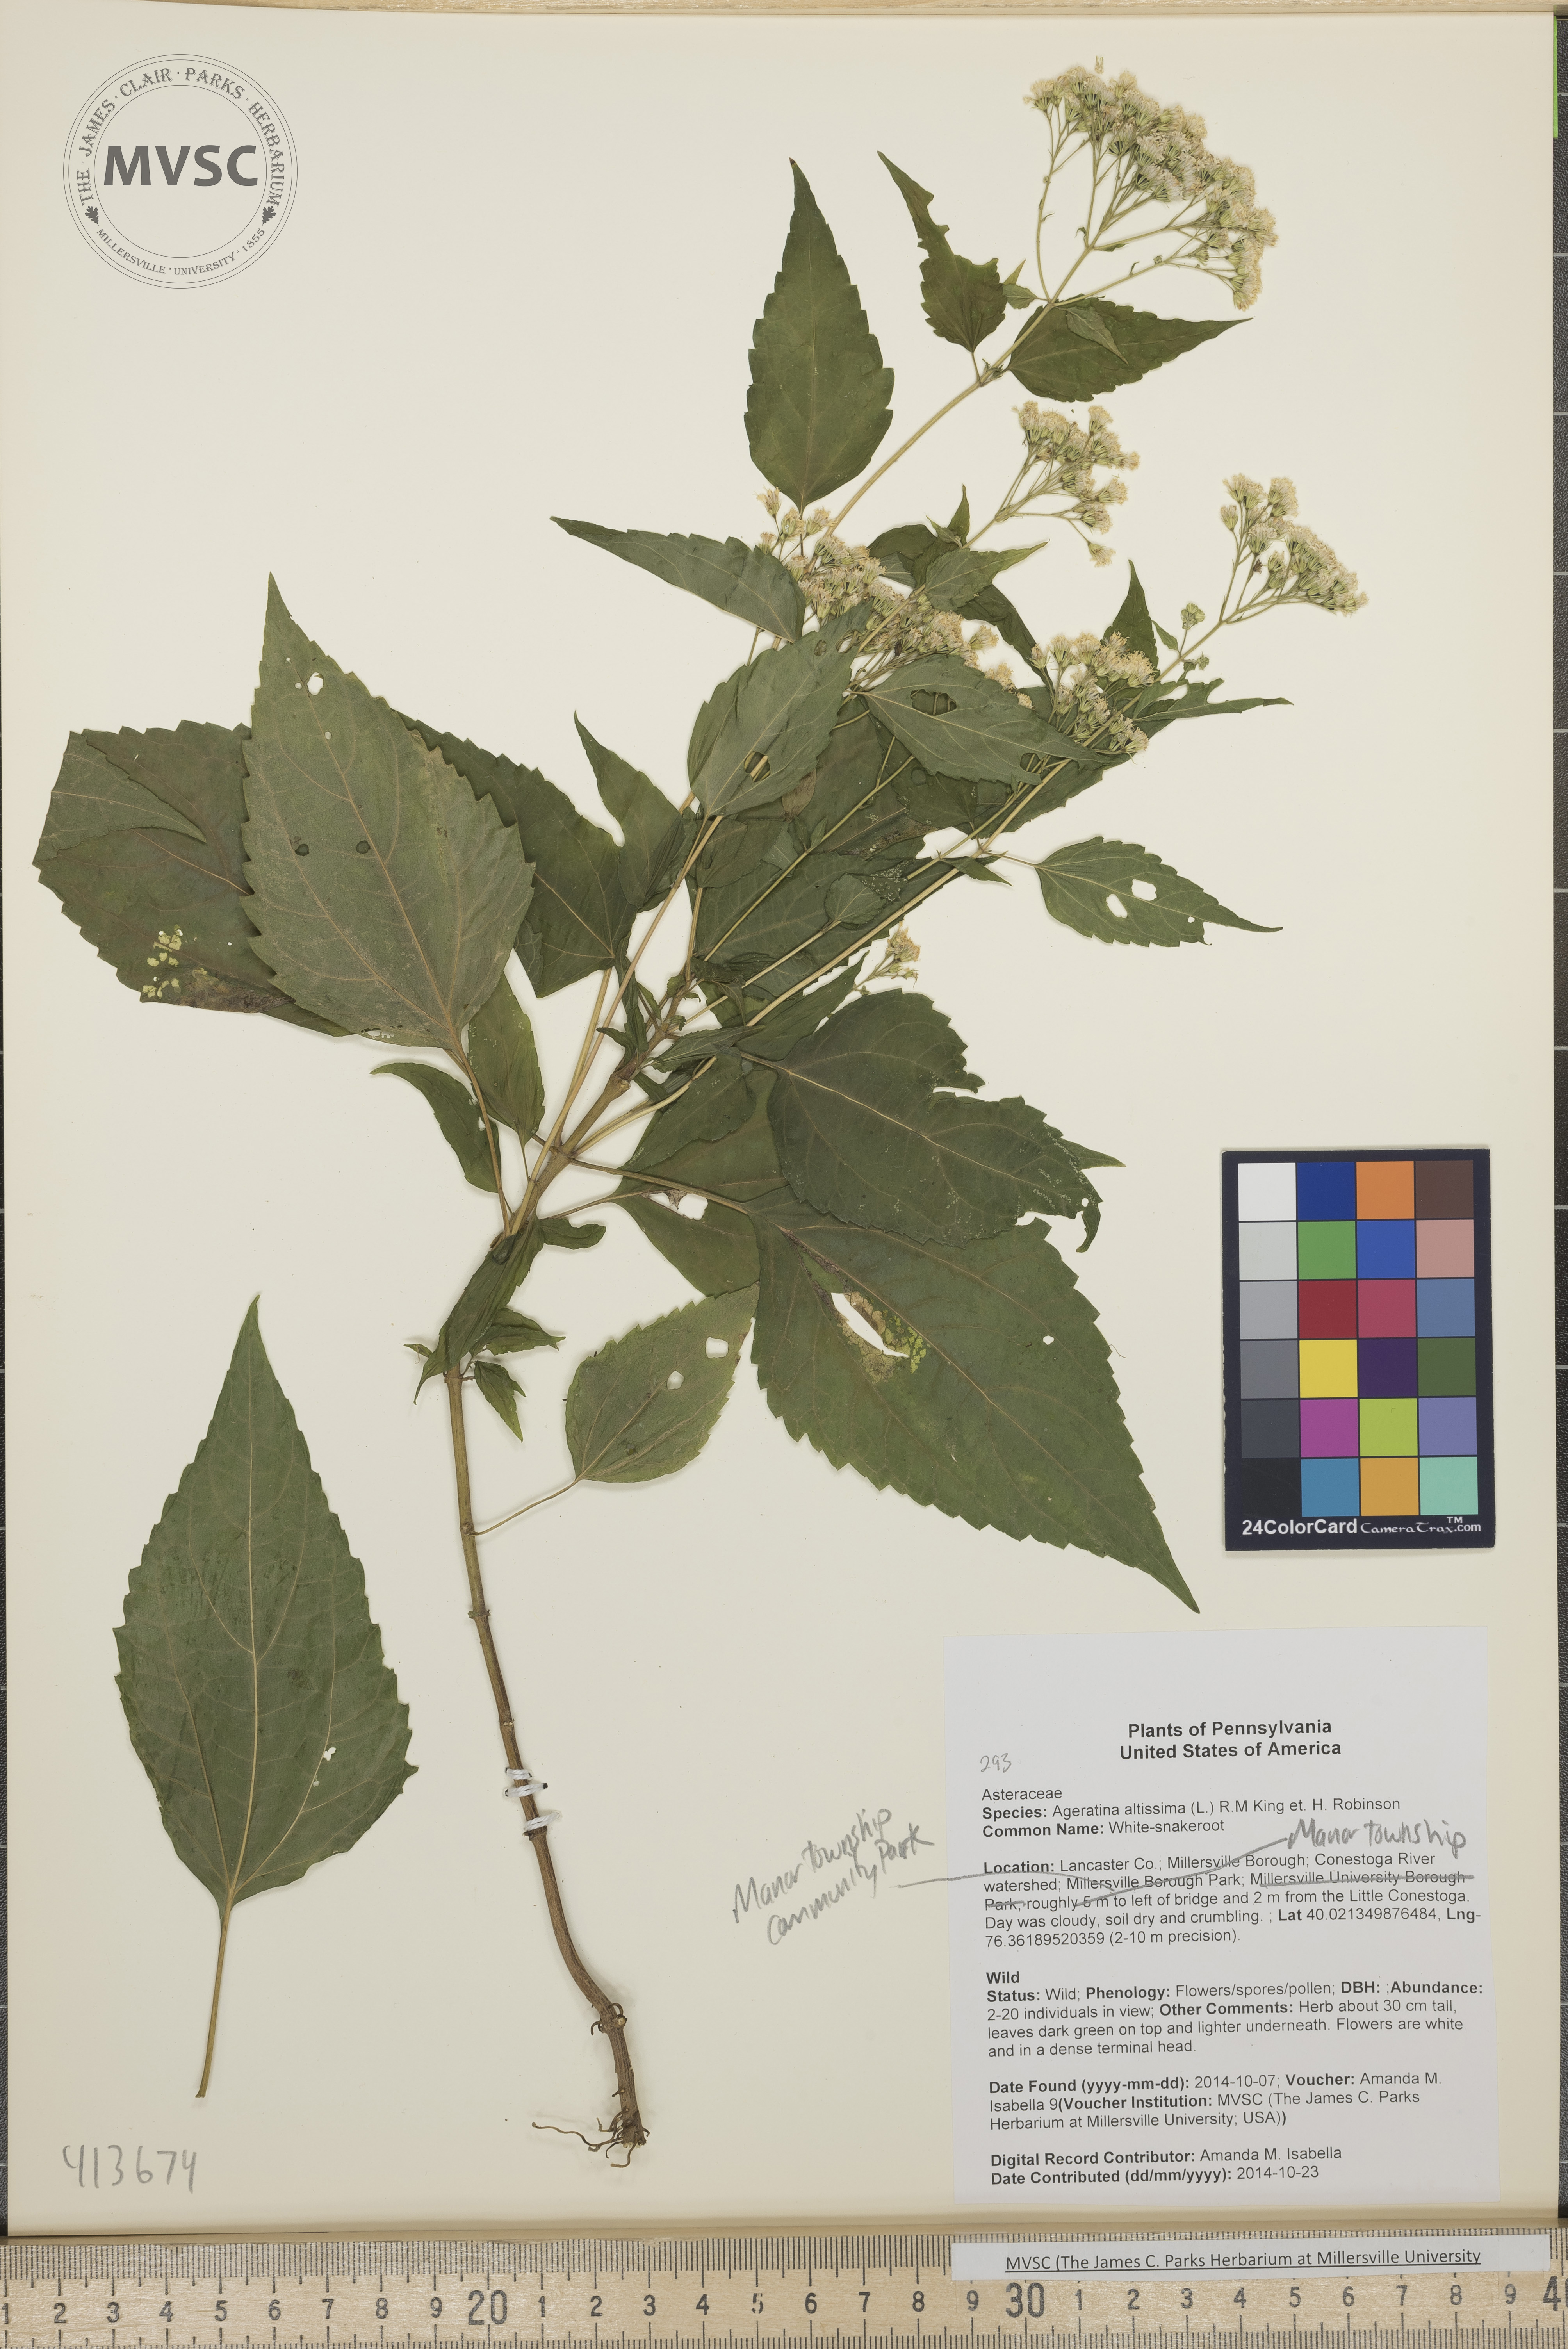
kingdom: Plantae
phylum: Tracheophyta
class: Magnoliopsida
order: Asterales
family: Asteraceae
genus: Ageratina
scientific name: Ageratina altissima
